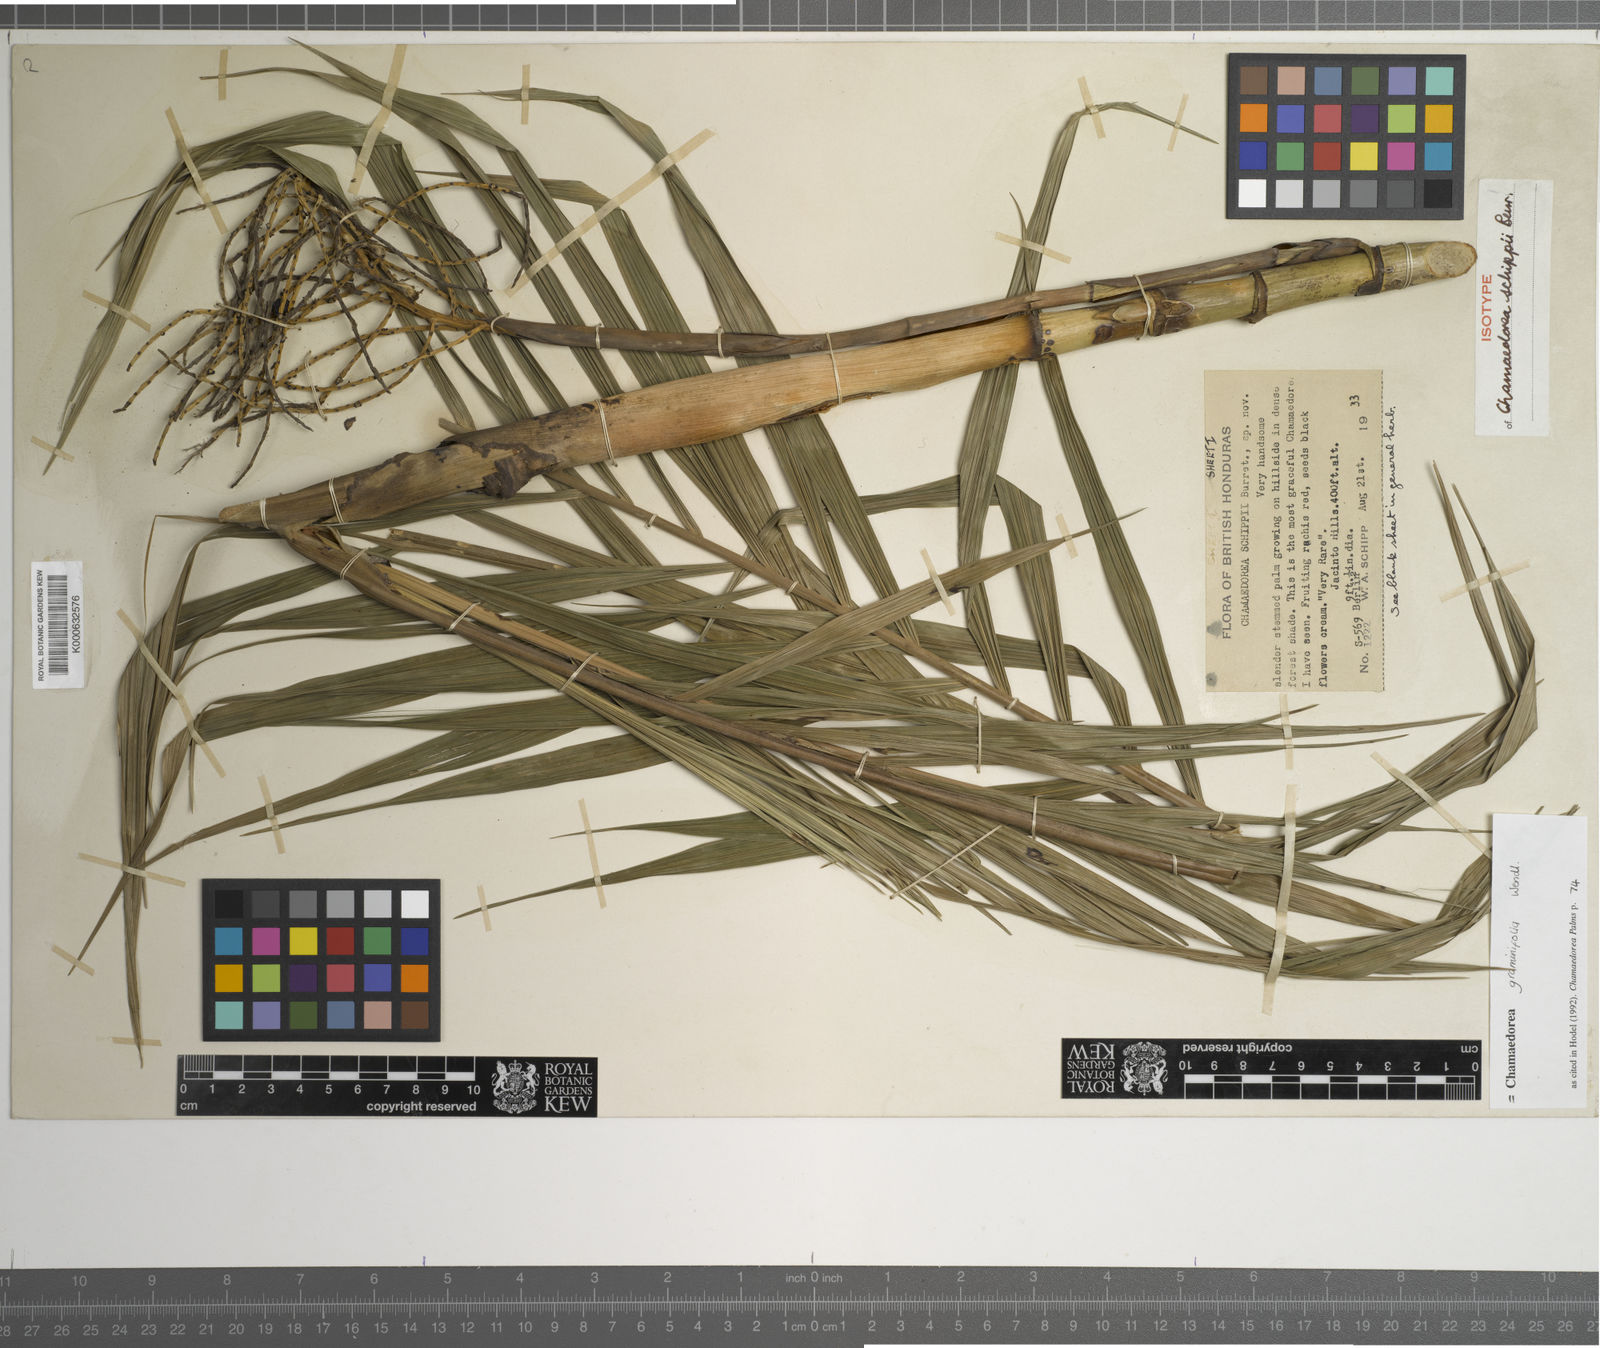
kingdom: Plantae
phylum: Tracheophyta
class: Liliopsida
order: Arecales
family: Arecaceae
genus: Chamaedorea
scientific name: Chamaedorea graminifolia
